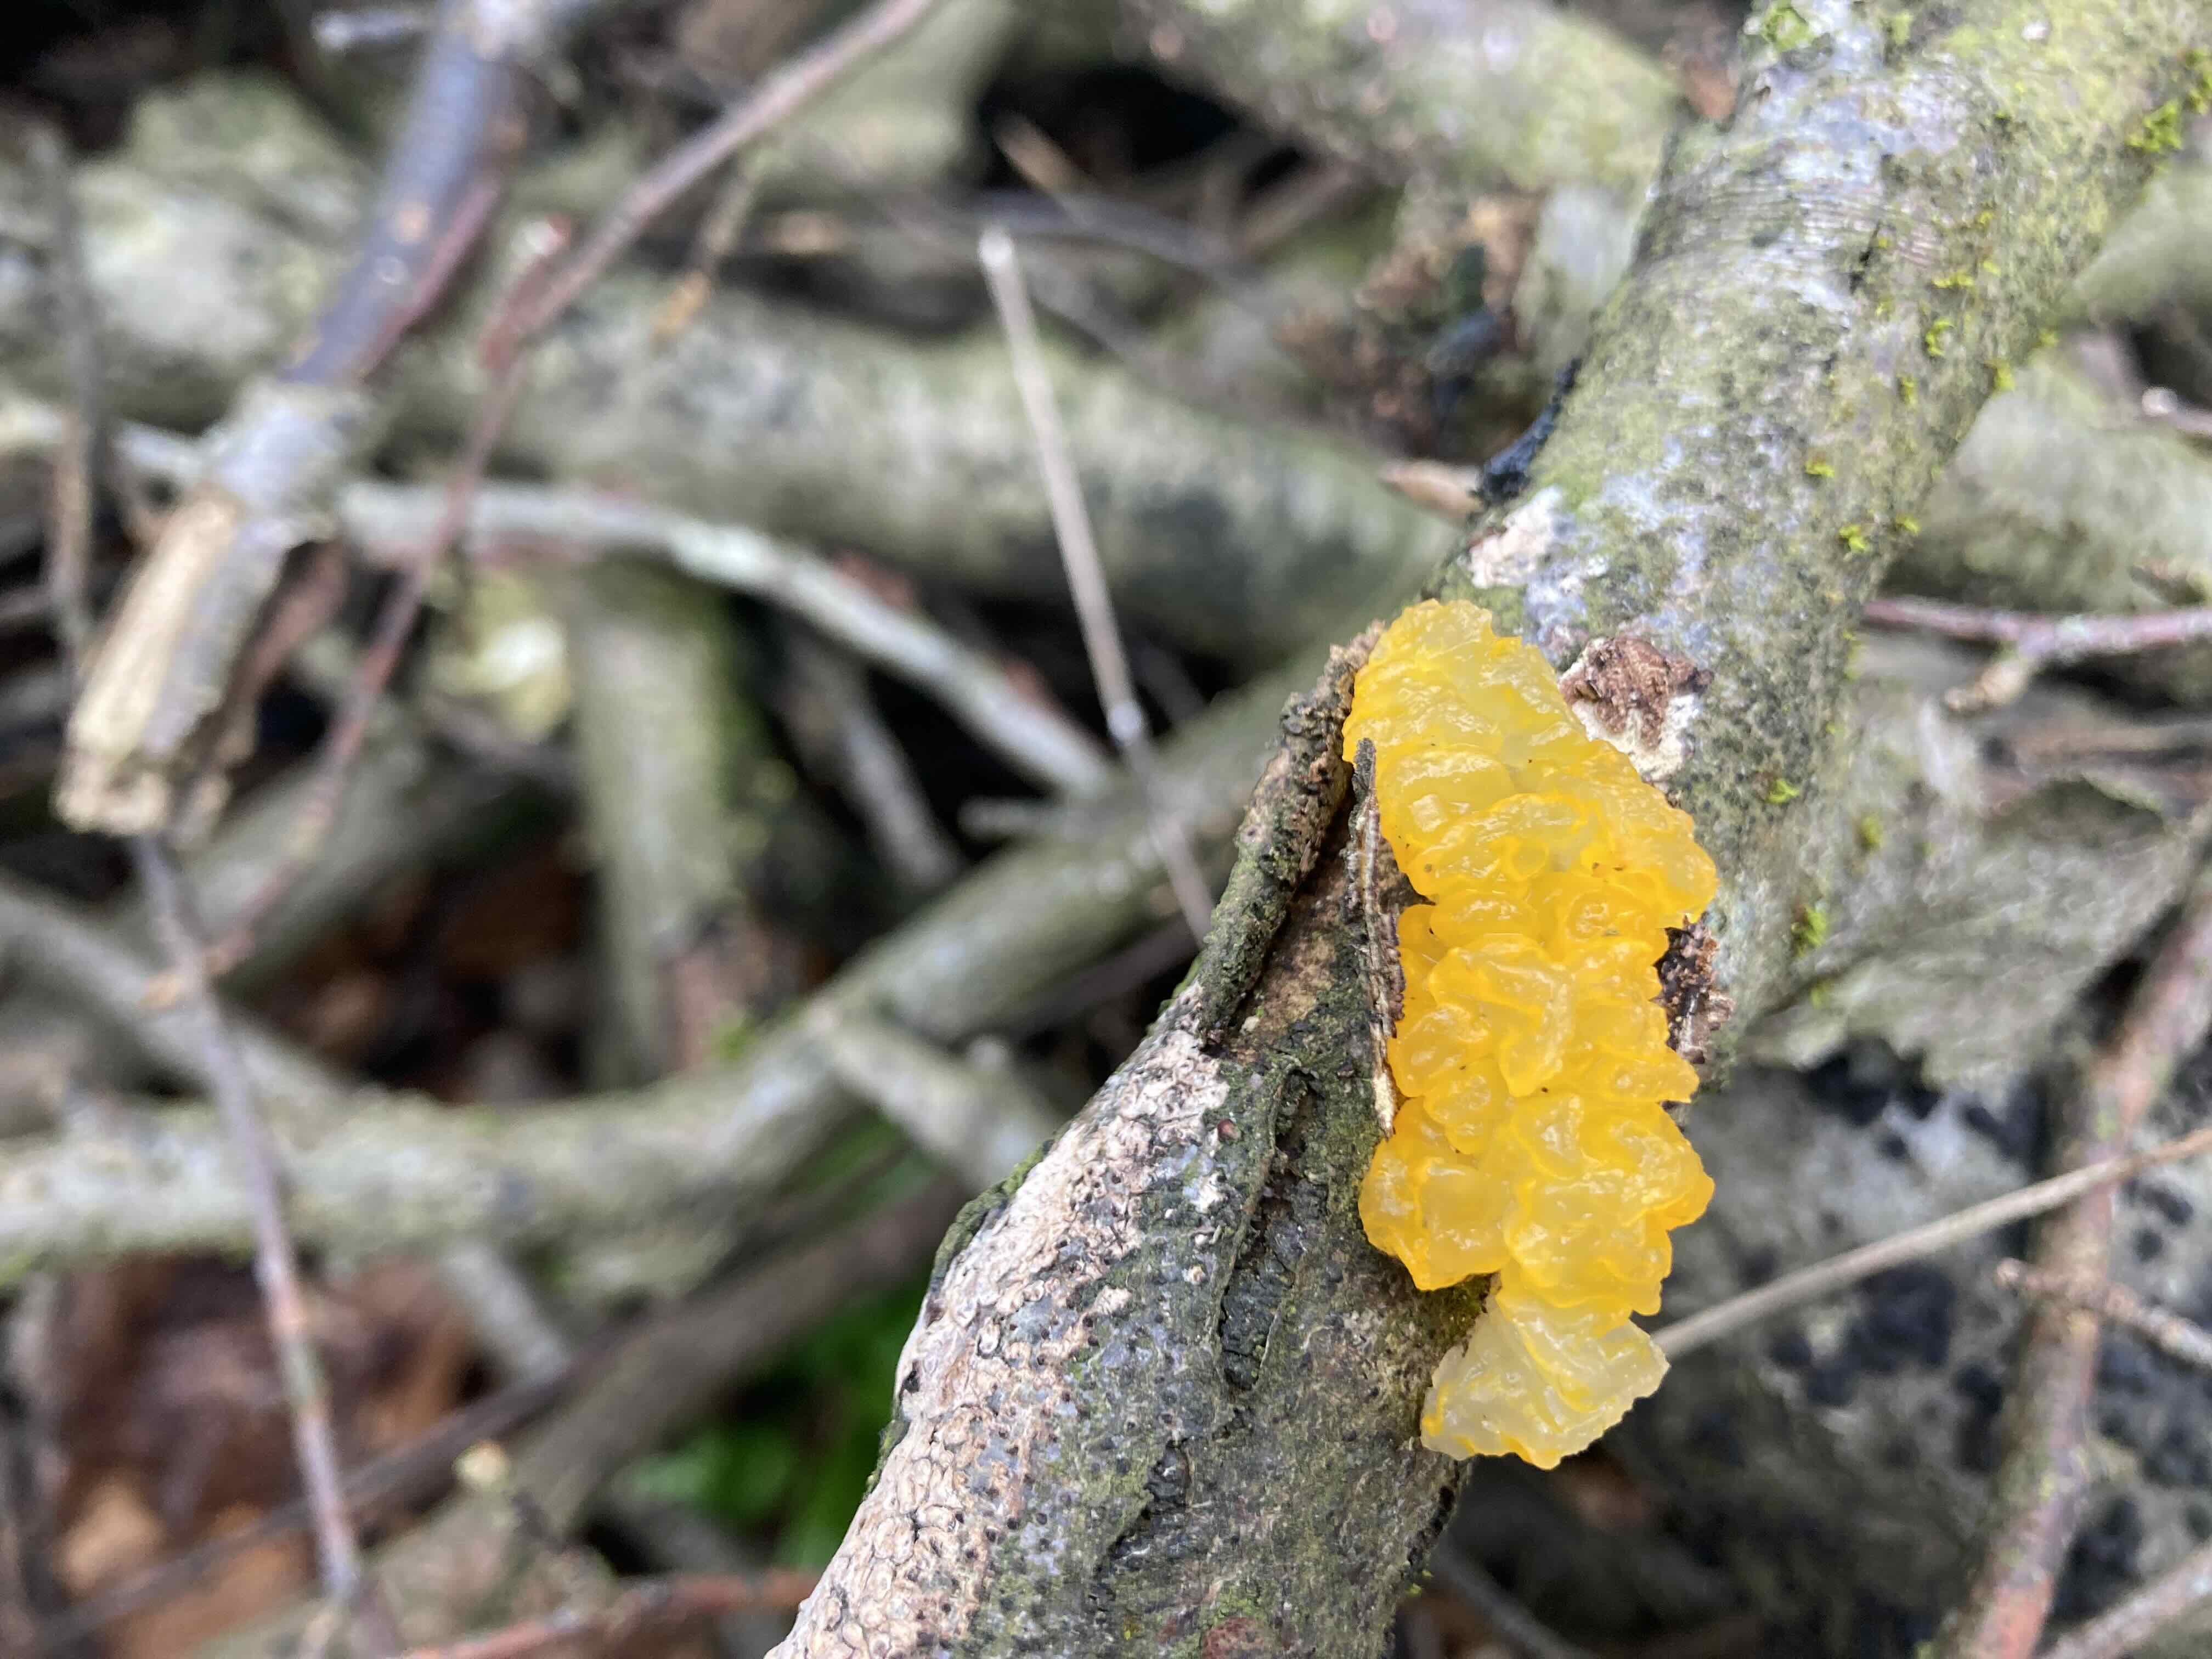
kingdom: Fungi
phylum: Basidiomycota
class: Tremellomycetes
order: Tremellales
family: Tremellaceae
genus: Tremella
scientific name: Tremella mesenterica
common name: gul bævresvamp
